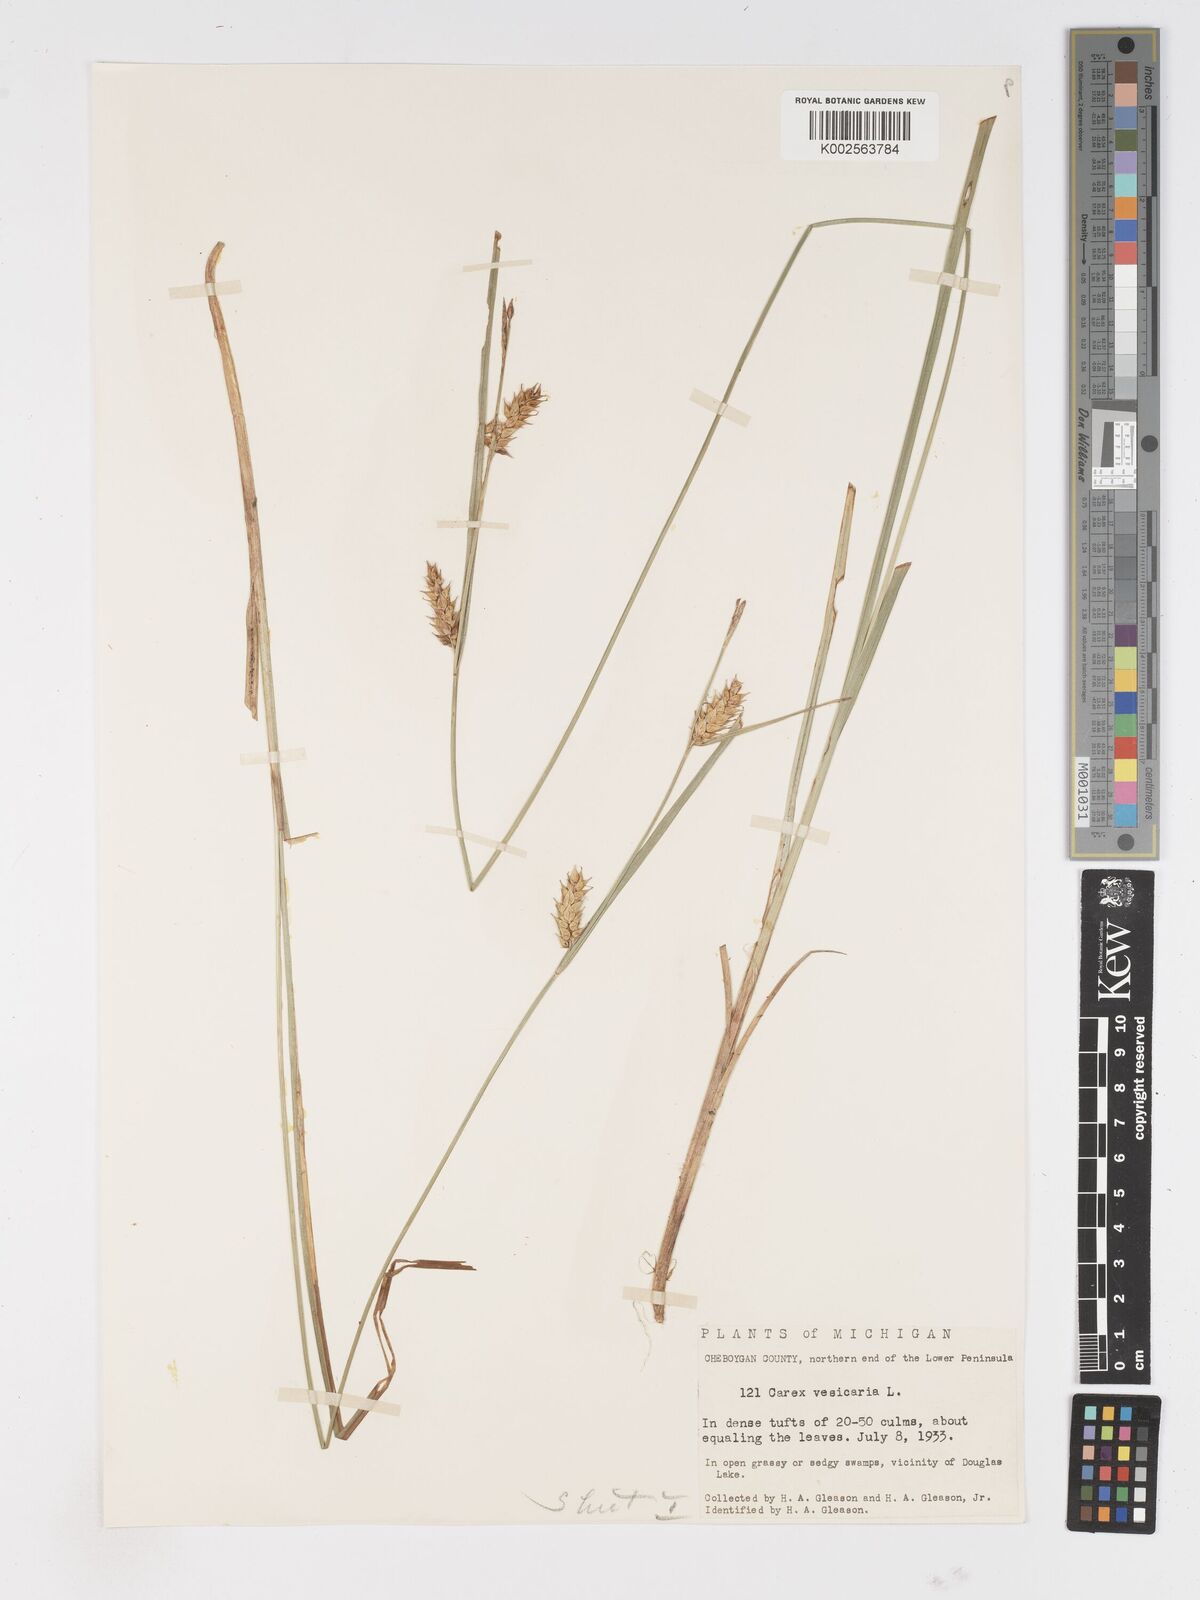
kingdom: Plantae
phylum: Tracheophyta
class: Liliopsida
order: Poales
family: Cyperaceae
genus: Carex
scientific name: Carex vesicaria
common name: Bladder-sedge
